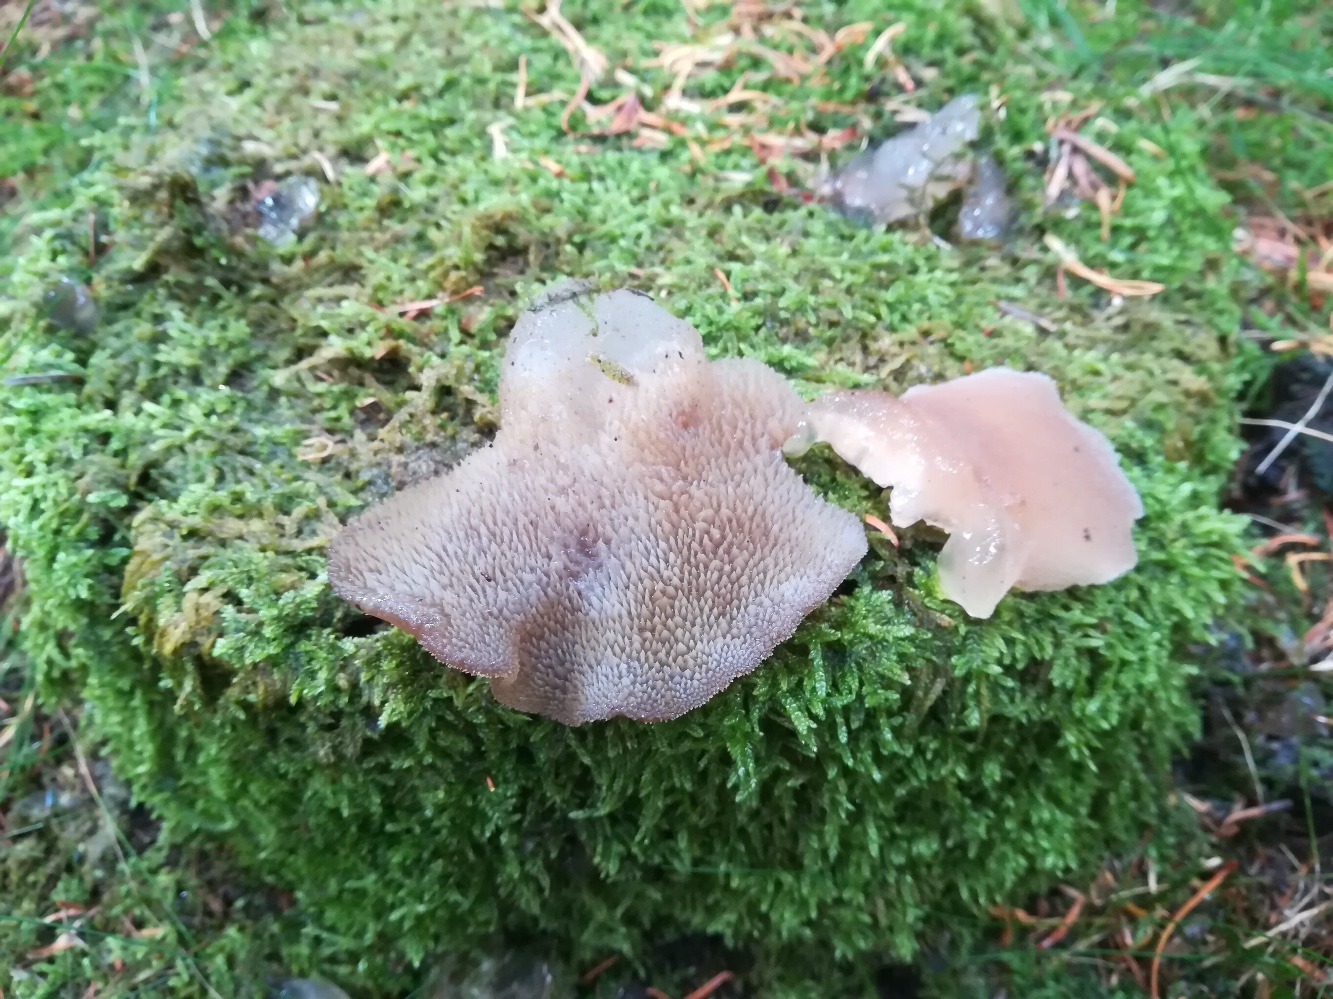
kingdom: Fungi
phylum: Basidiomycota
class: Agaricomycetes
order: Auriculariales
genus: Pseudohydnum
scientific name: Pseudohydnum gelatinosum
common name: bævretand
